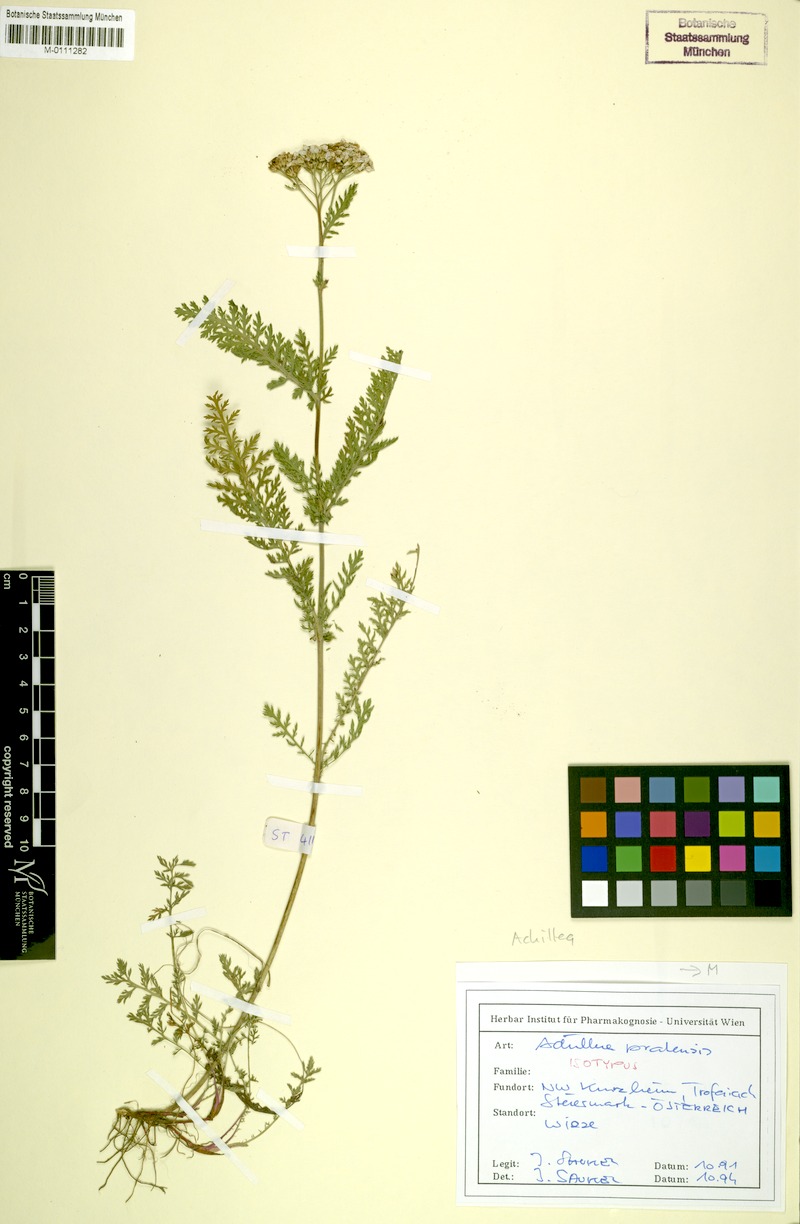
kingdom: Plantae
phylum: Tracheophyta
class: Magnoliopsida
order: Asterales
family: Asteraceae
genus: Achillea
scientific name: Achillea millefolium
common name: Yarrow
